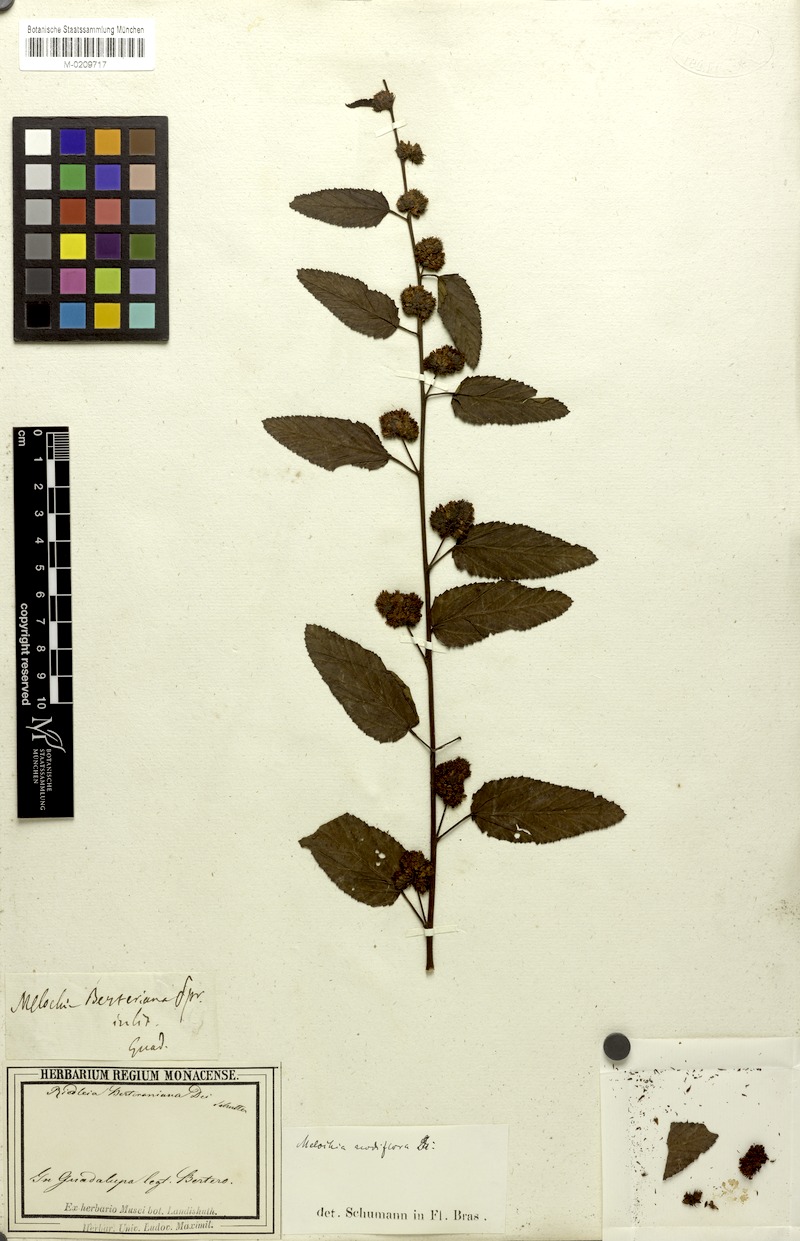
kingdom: Plantae
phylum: Tracheophyta
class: Magnoliopsida
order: Malvales
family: Malvaceae
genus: Waltheria
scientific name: Waltheria glabra
